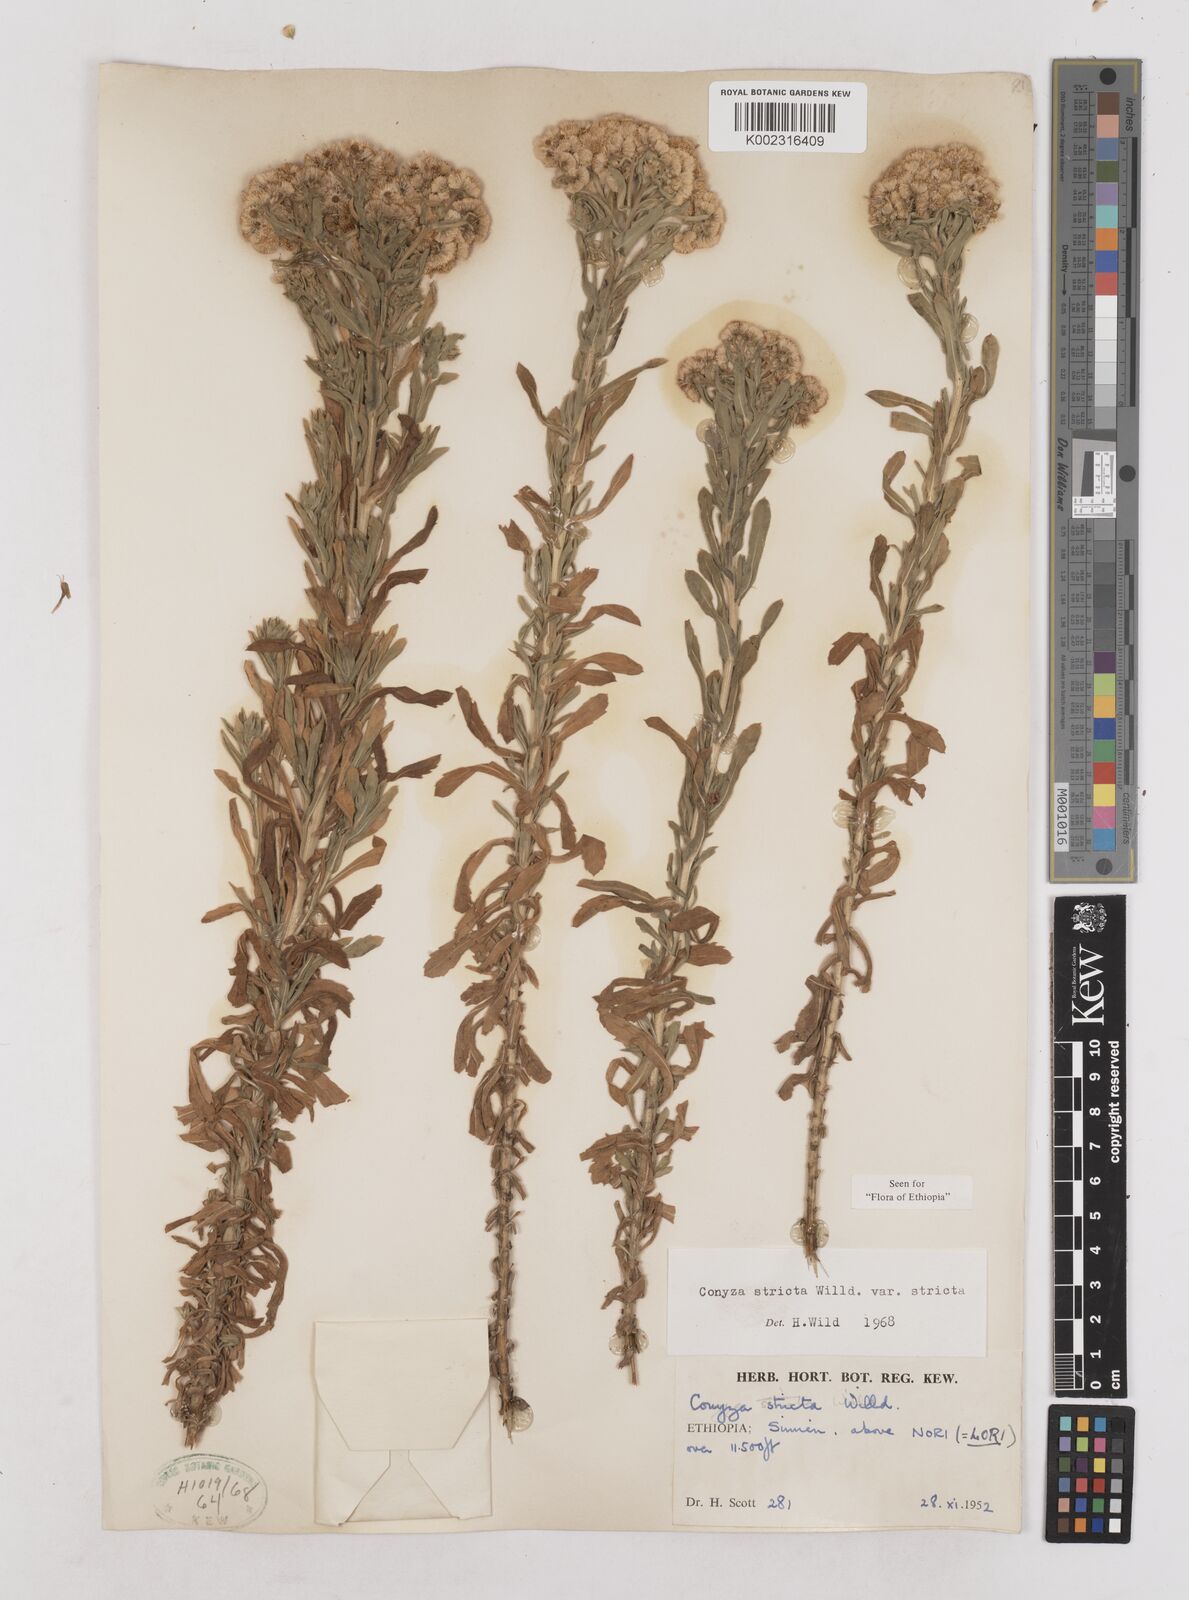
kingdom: Plantae
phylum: Tracheophyta
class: Magnoliopsida
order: Asterales
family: Asteraceae
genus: Nidorella
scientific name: Nidorella triloba
